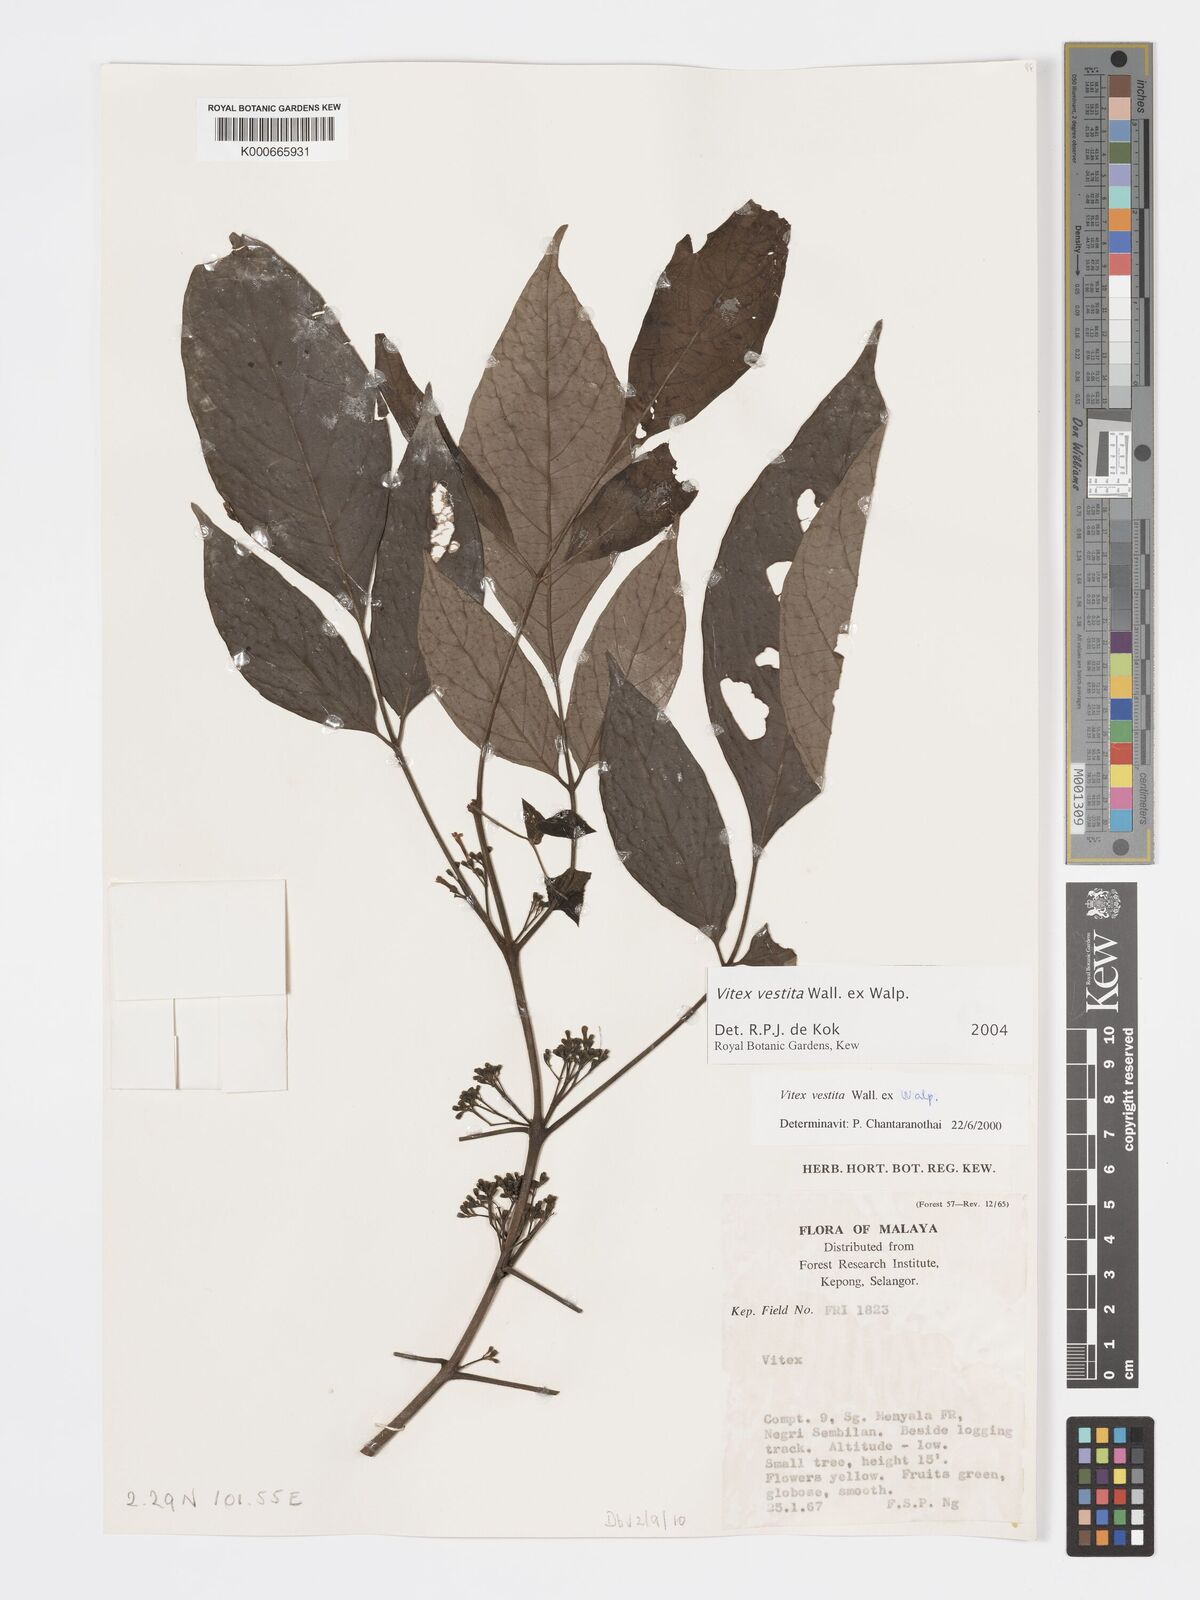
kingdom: Plantae
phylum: Tracheophyta
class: Magnoliopsida
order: Lamiales
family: Lamiaceae
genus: Vitex
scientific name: Vitex vestita
